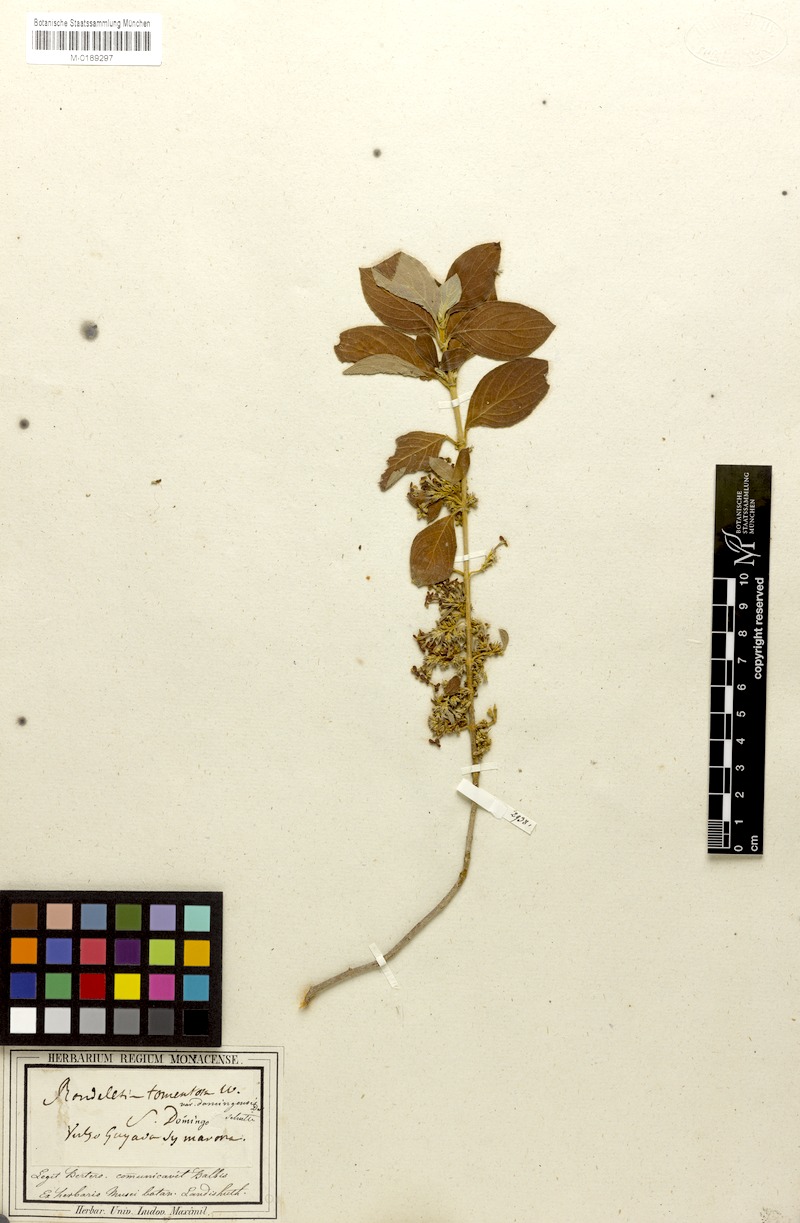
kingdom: Plantae
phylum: Tracheophyta
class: Magnoliopsida
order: Gentianales
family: Rubiaceae
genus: Casasia
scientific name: Casasia domingensis
